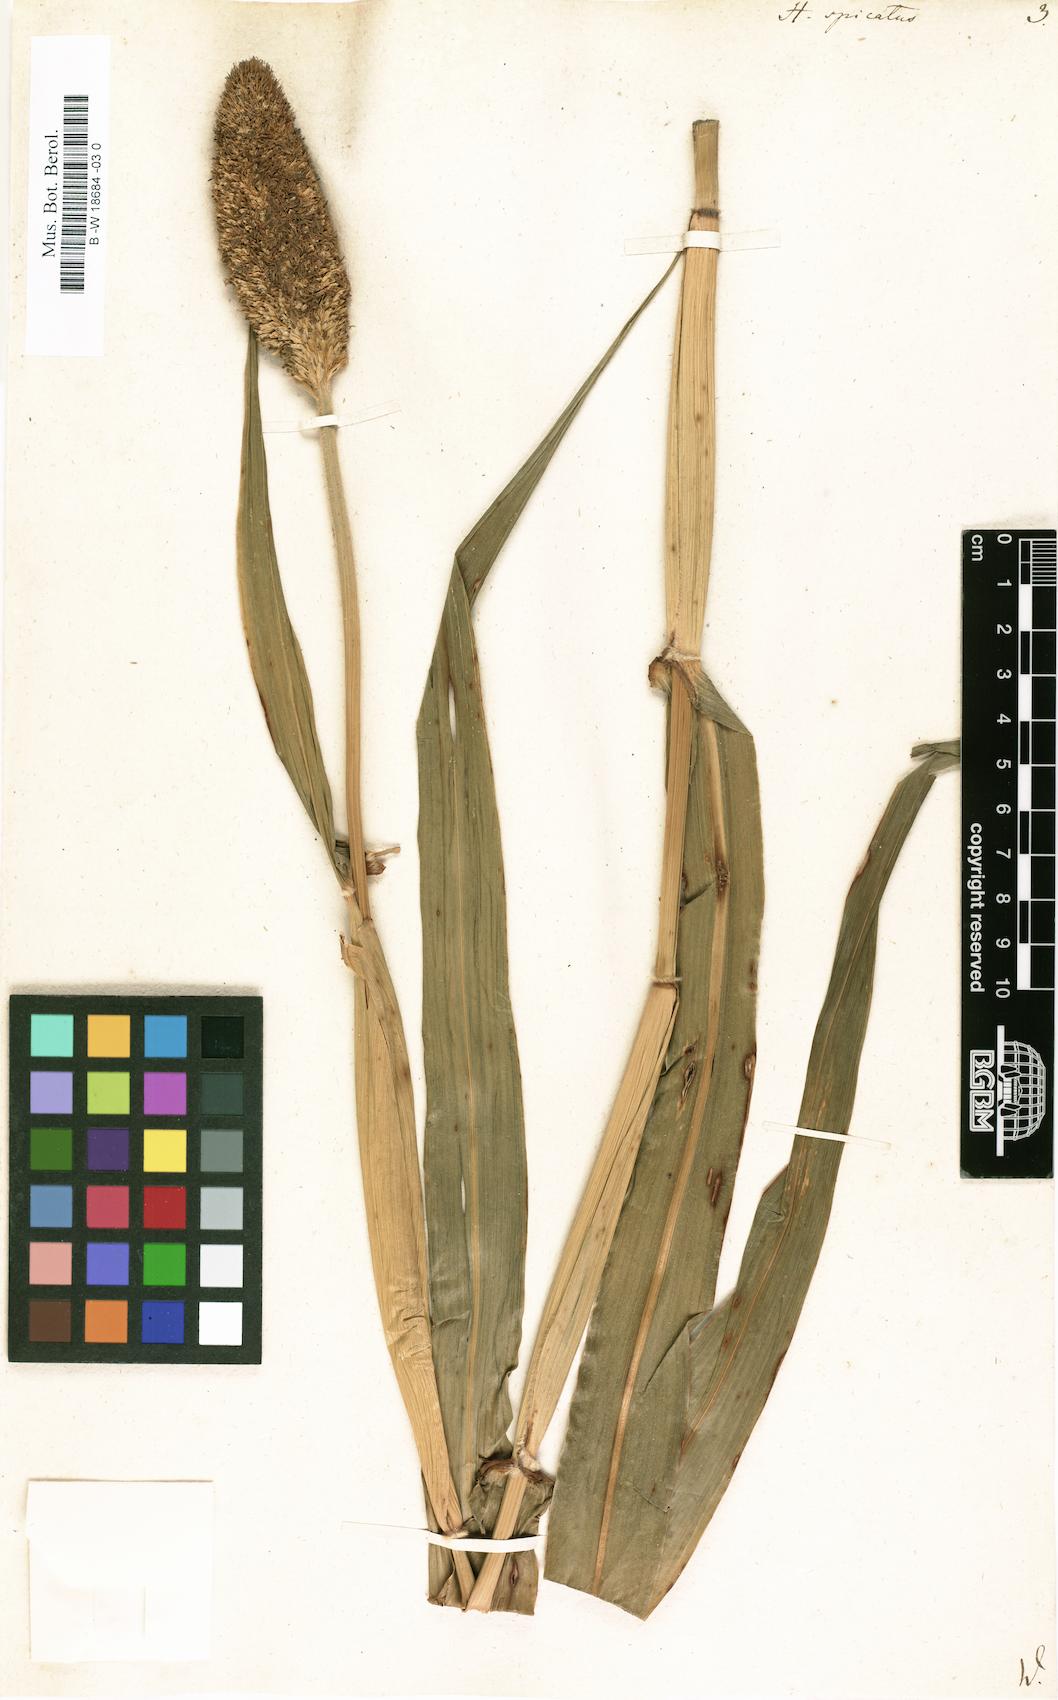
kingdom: Plantae
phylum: Tracheophyta
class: Liliopsida
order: Poales
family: Poaceae
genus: Cenchrus
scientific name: Cenchrus americanus
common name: Pearl millet
